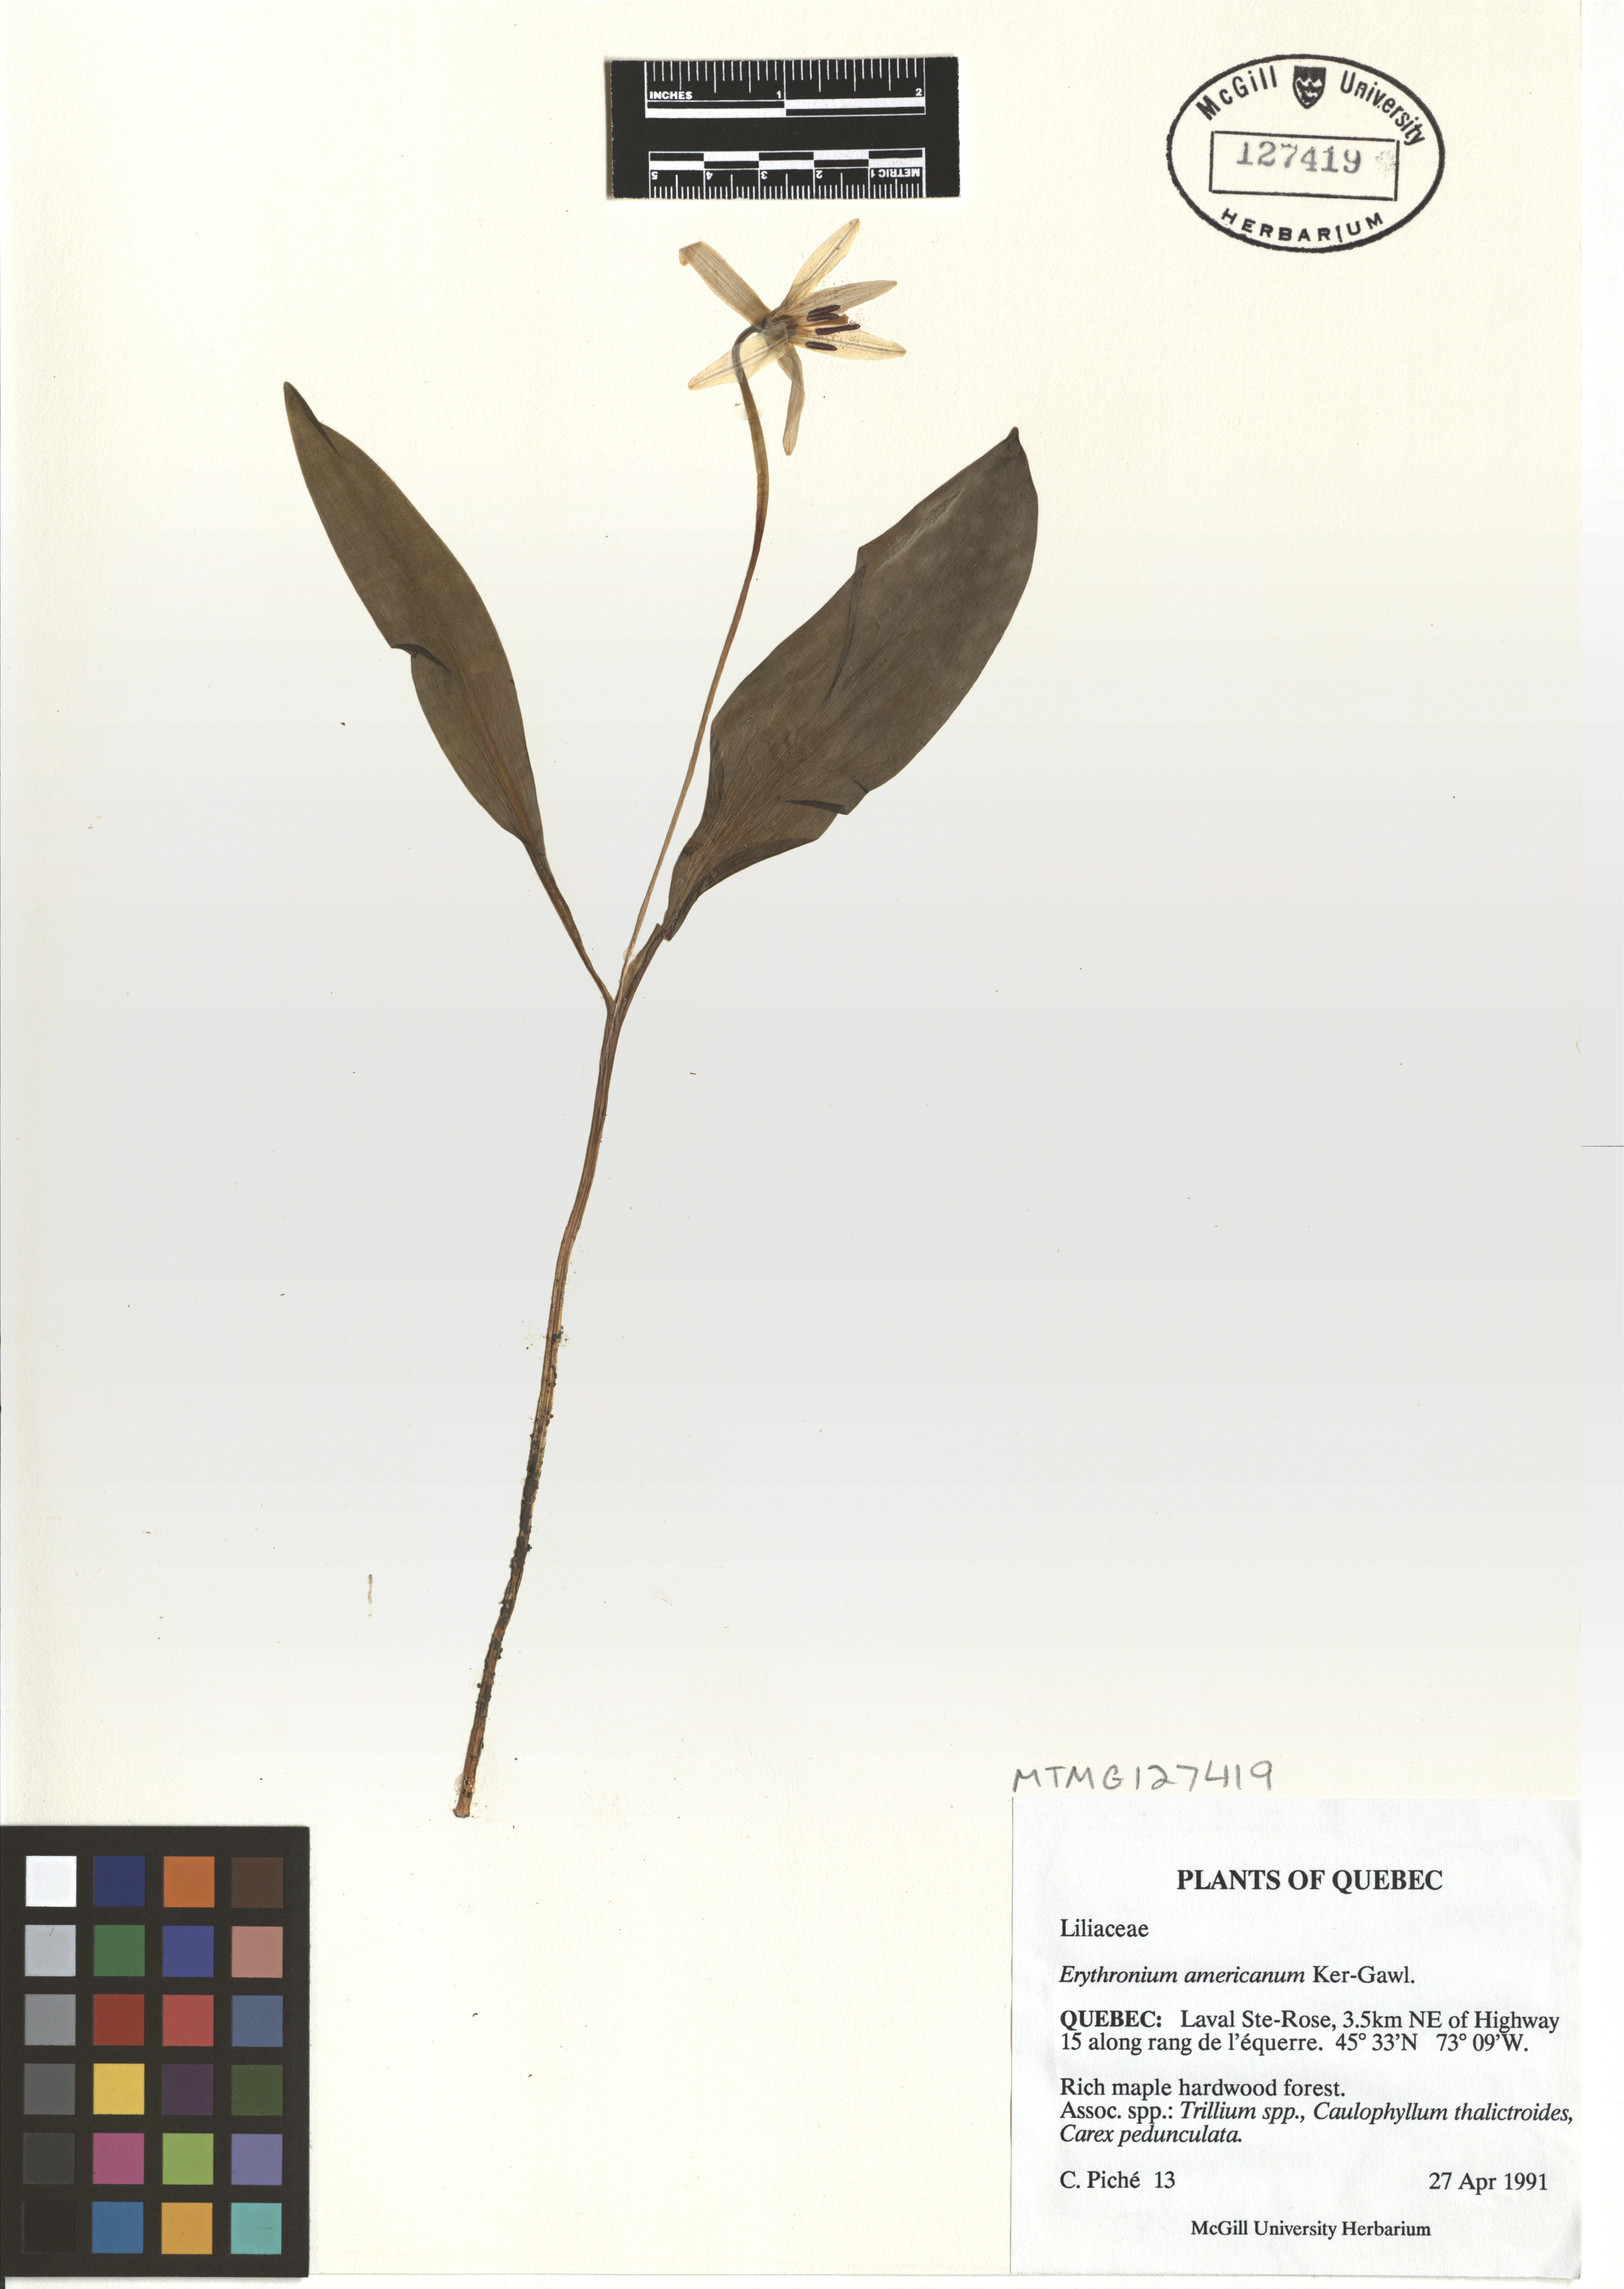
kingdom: Plantae
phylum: Tracheophyta
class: Liliopsida
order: Liliales
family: Liliaceae
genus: Erythronium
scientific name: Erythronium americanum
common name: Yellow adder's-tongue
